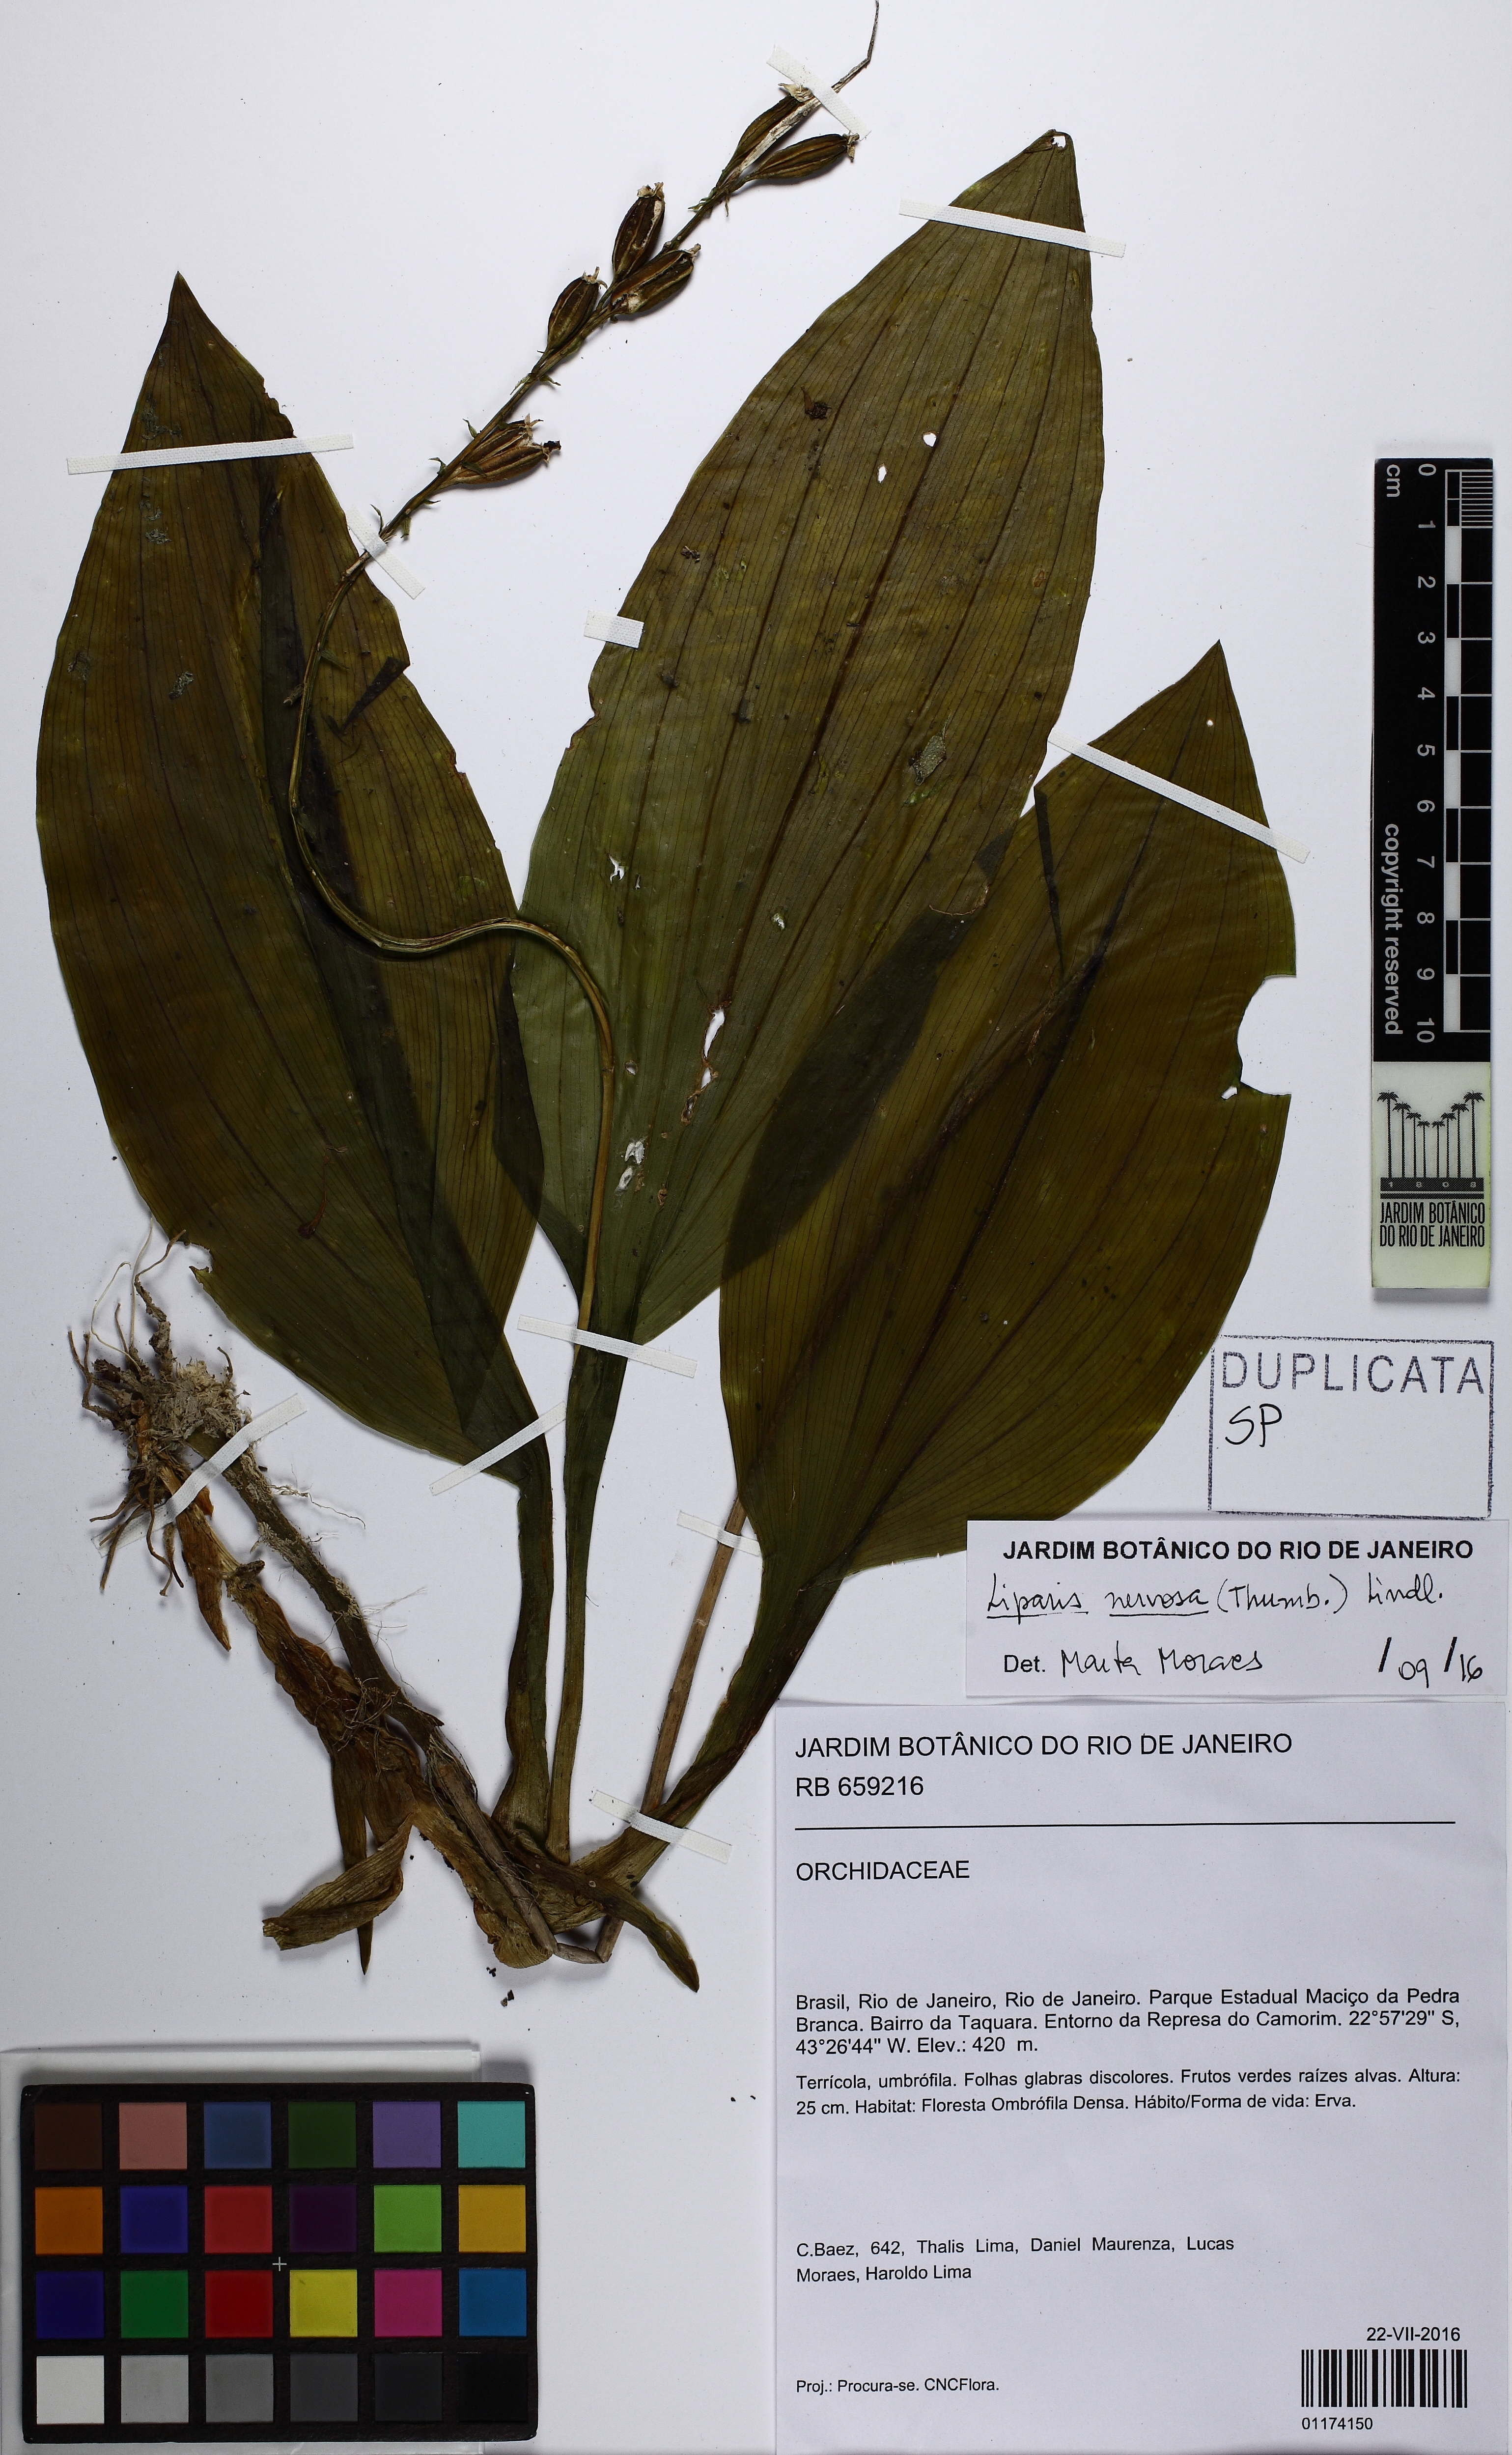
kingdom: Plantae
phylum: Tracheophyta
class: Liliopsida
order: Asparagales
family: Orchidaceae
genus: Liparis
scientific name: Liparis nervosa
